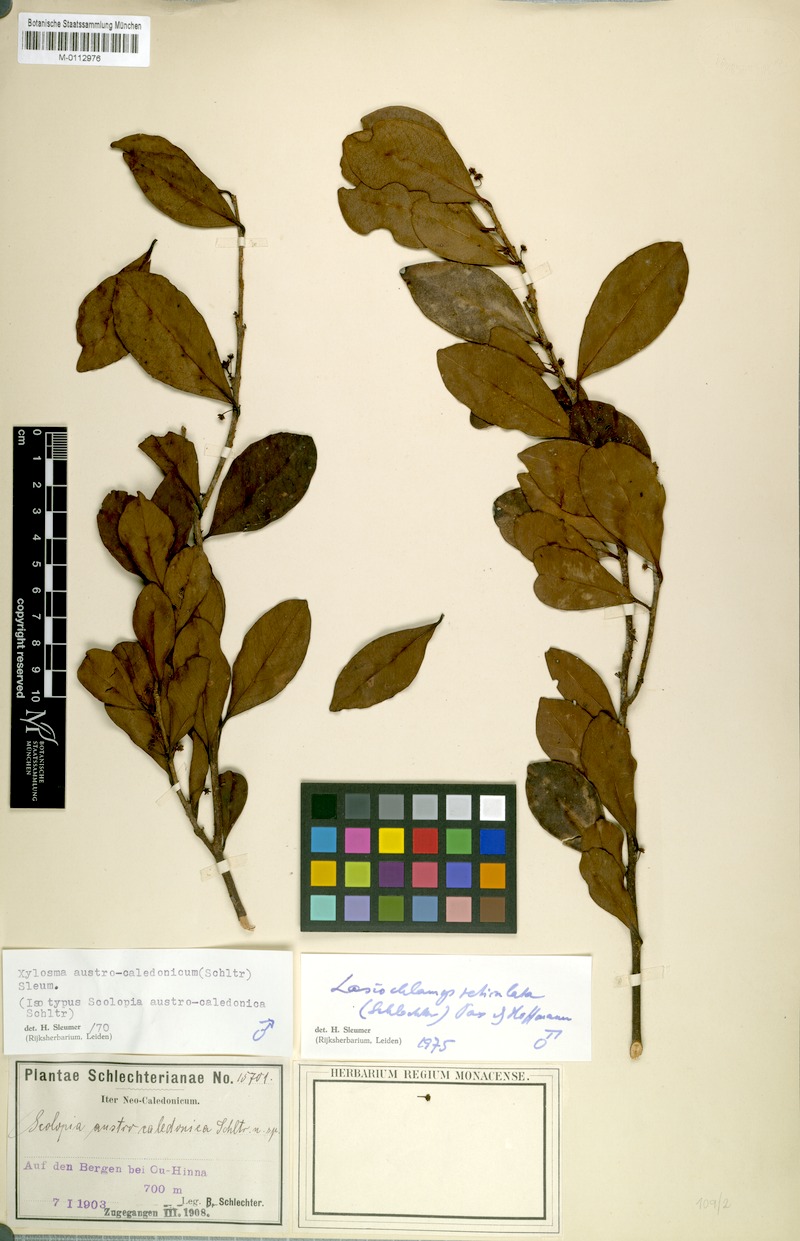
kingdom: Plantae
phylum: Tracheophyta
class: Magnoliopsida
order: Malpighiales
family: Salicaceae
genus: Lasiochlamys
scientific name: Lasiochlamys reticulata
